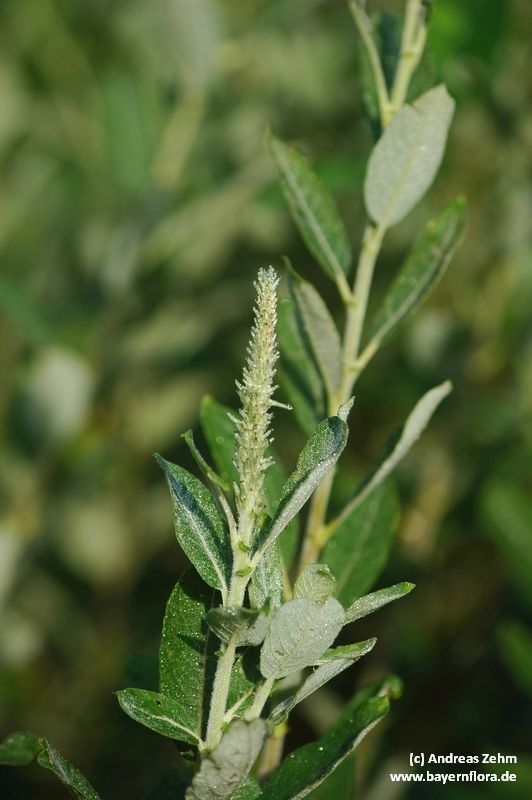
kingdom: Plantae
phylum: Tracheophyta
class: Magnoliopsida
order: Malpighiales
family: Salicaceae
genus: Salix
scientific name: Salix cinerea
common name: Common sallow
